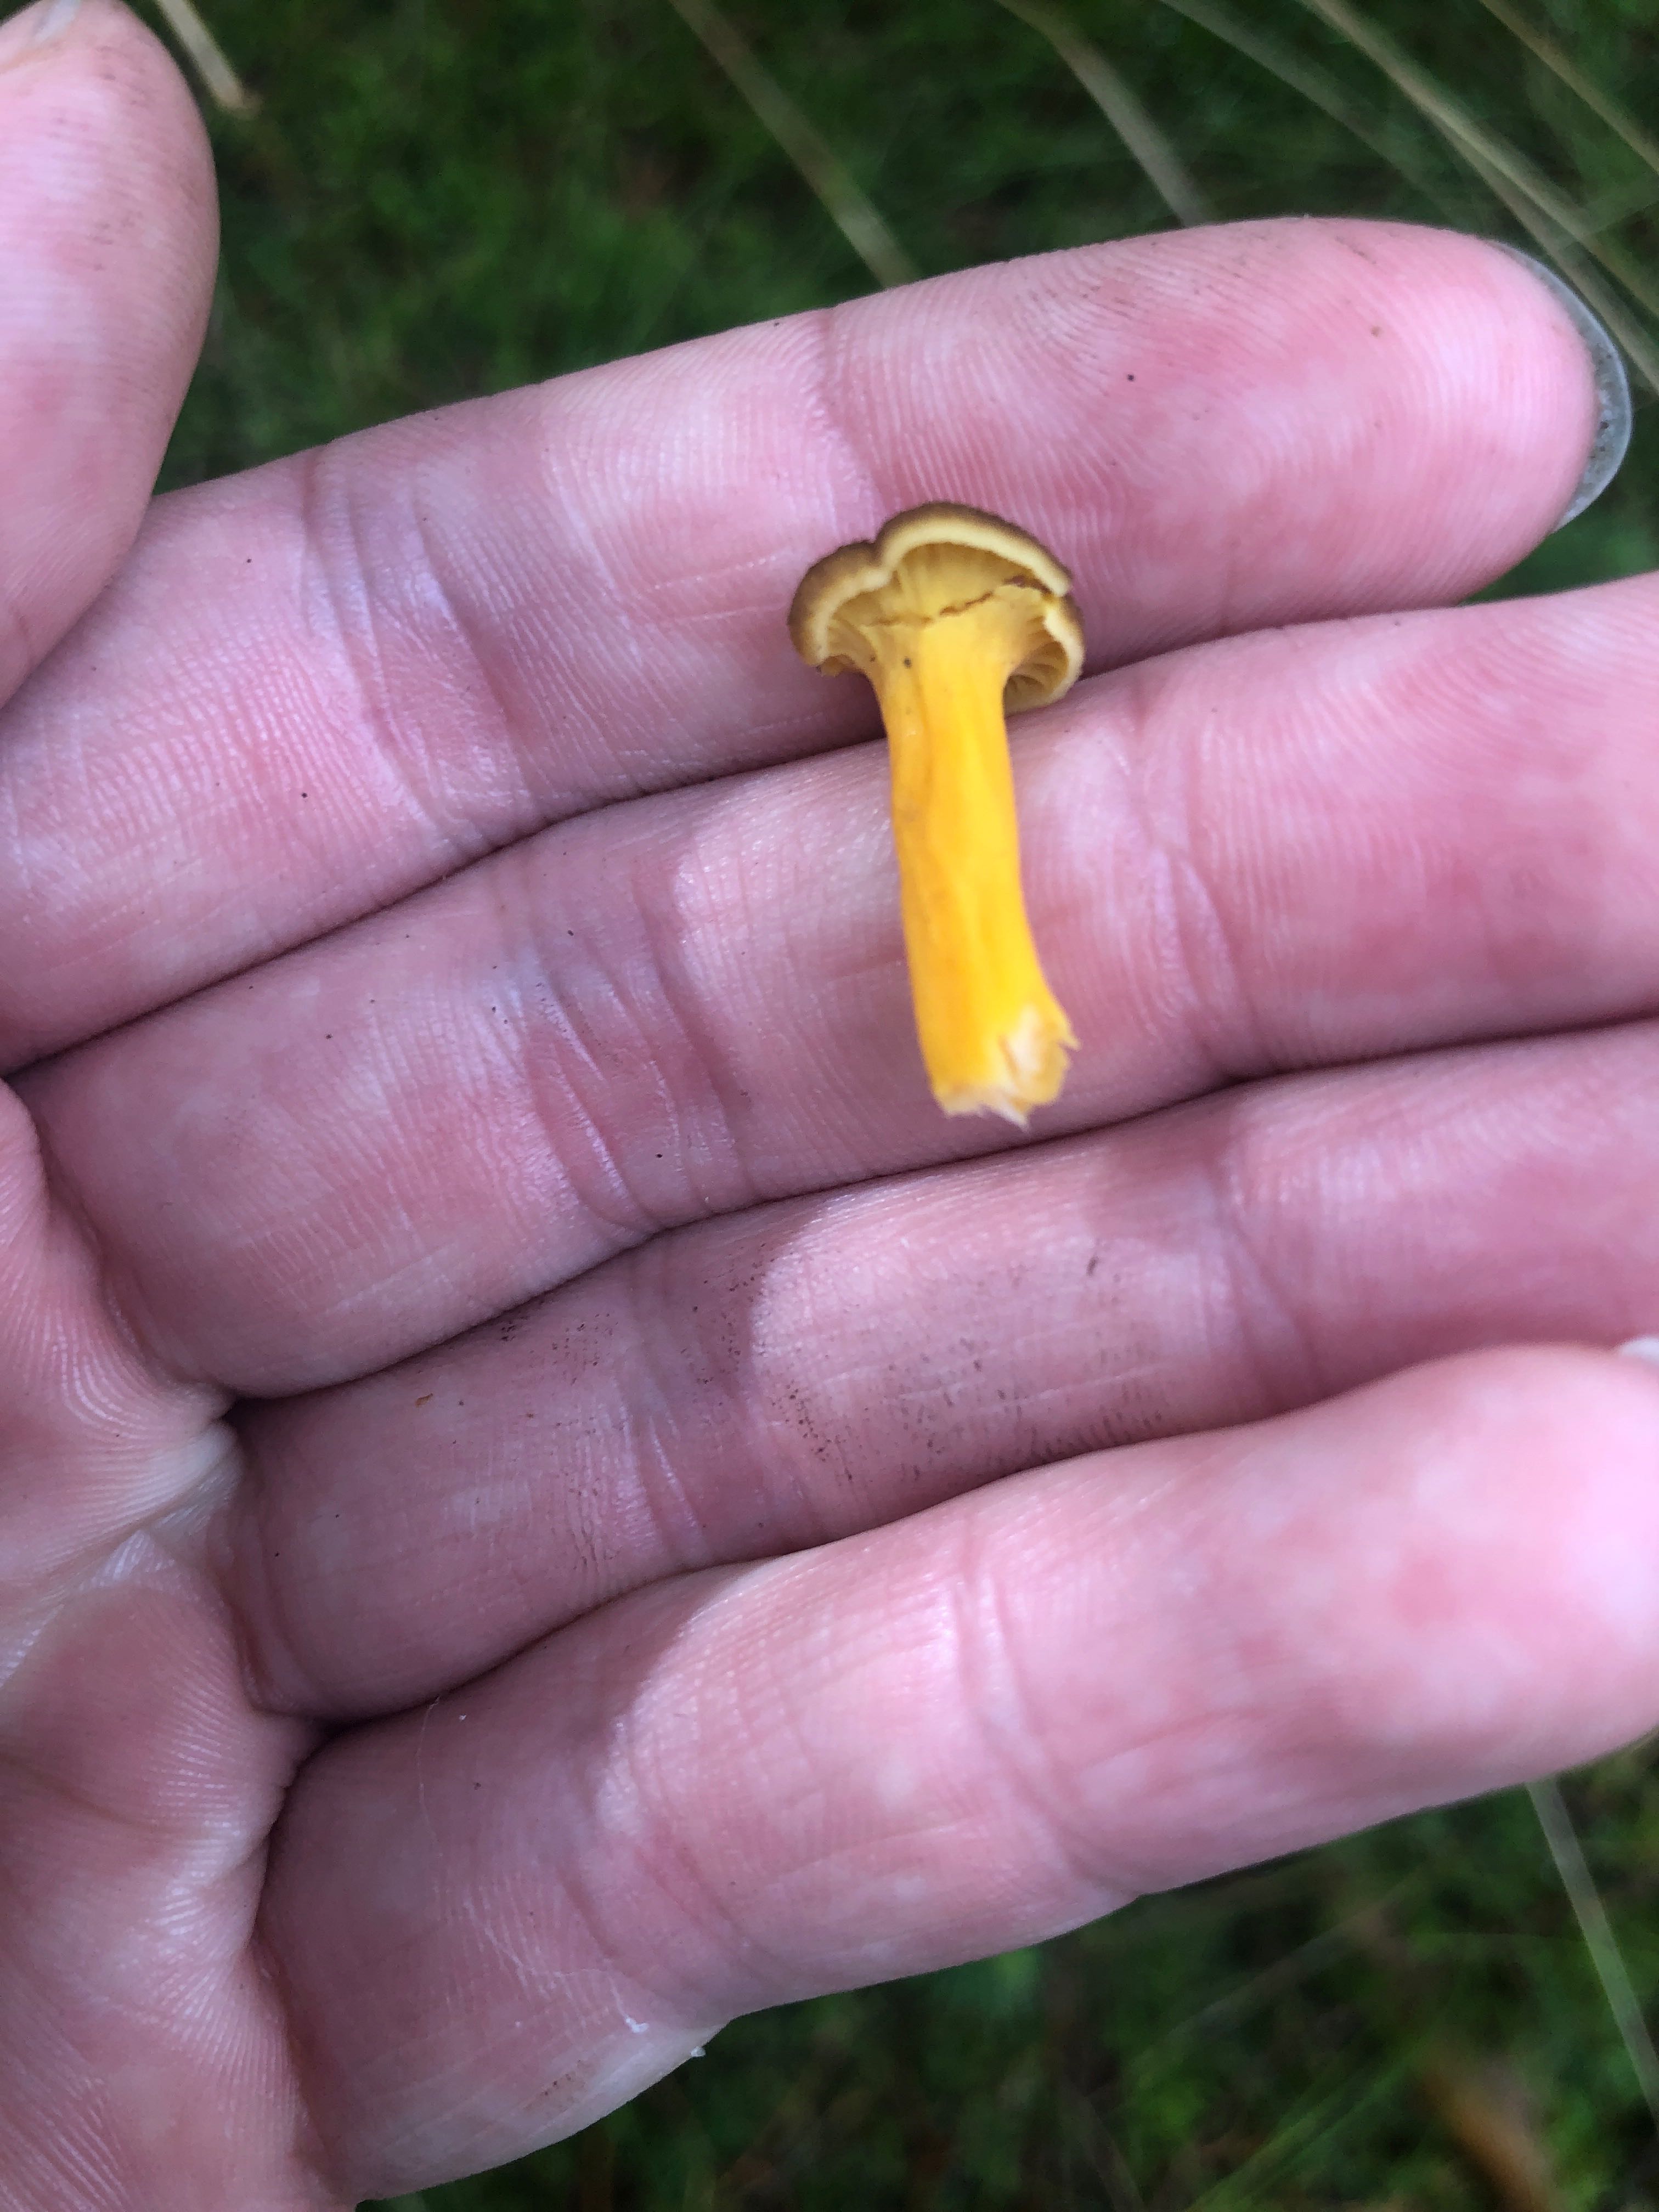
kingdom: Fungi
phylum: Basidiomycota
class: Agaricomycetes
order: Cantharellales
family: Hydnaceae
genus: Craterellus
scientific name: Craterellus tubaeformis
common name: tragt-kantarel
